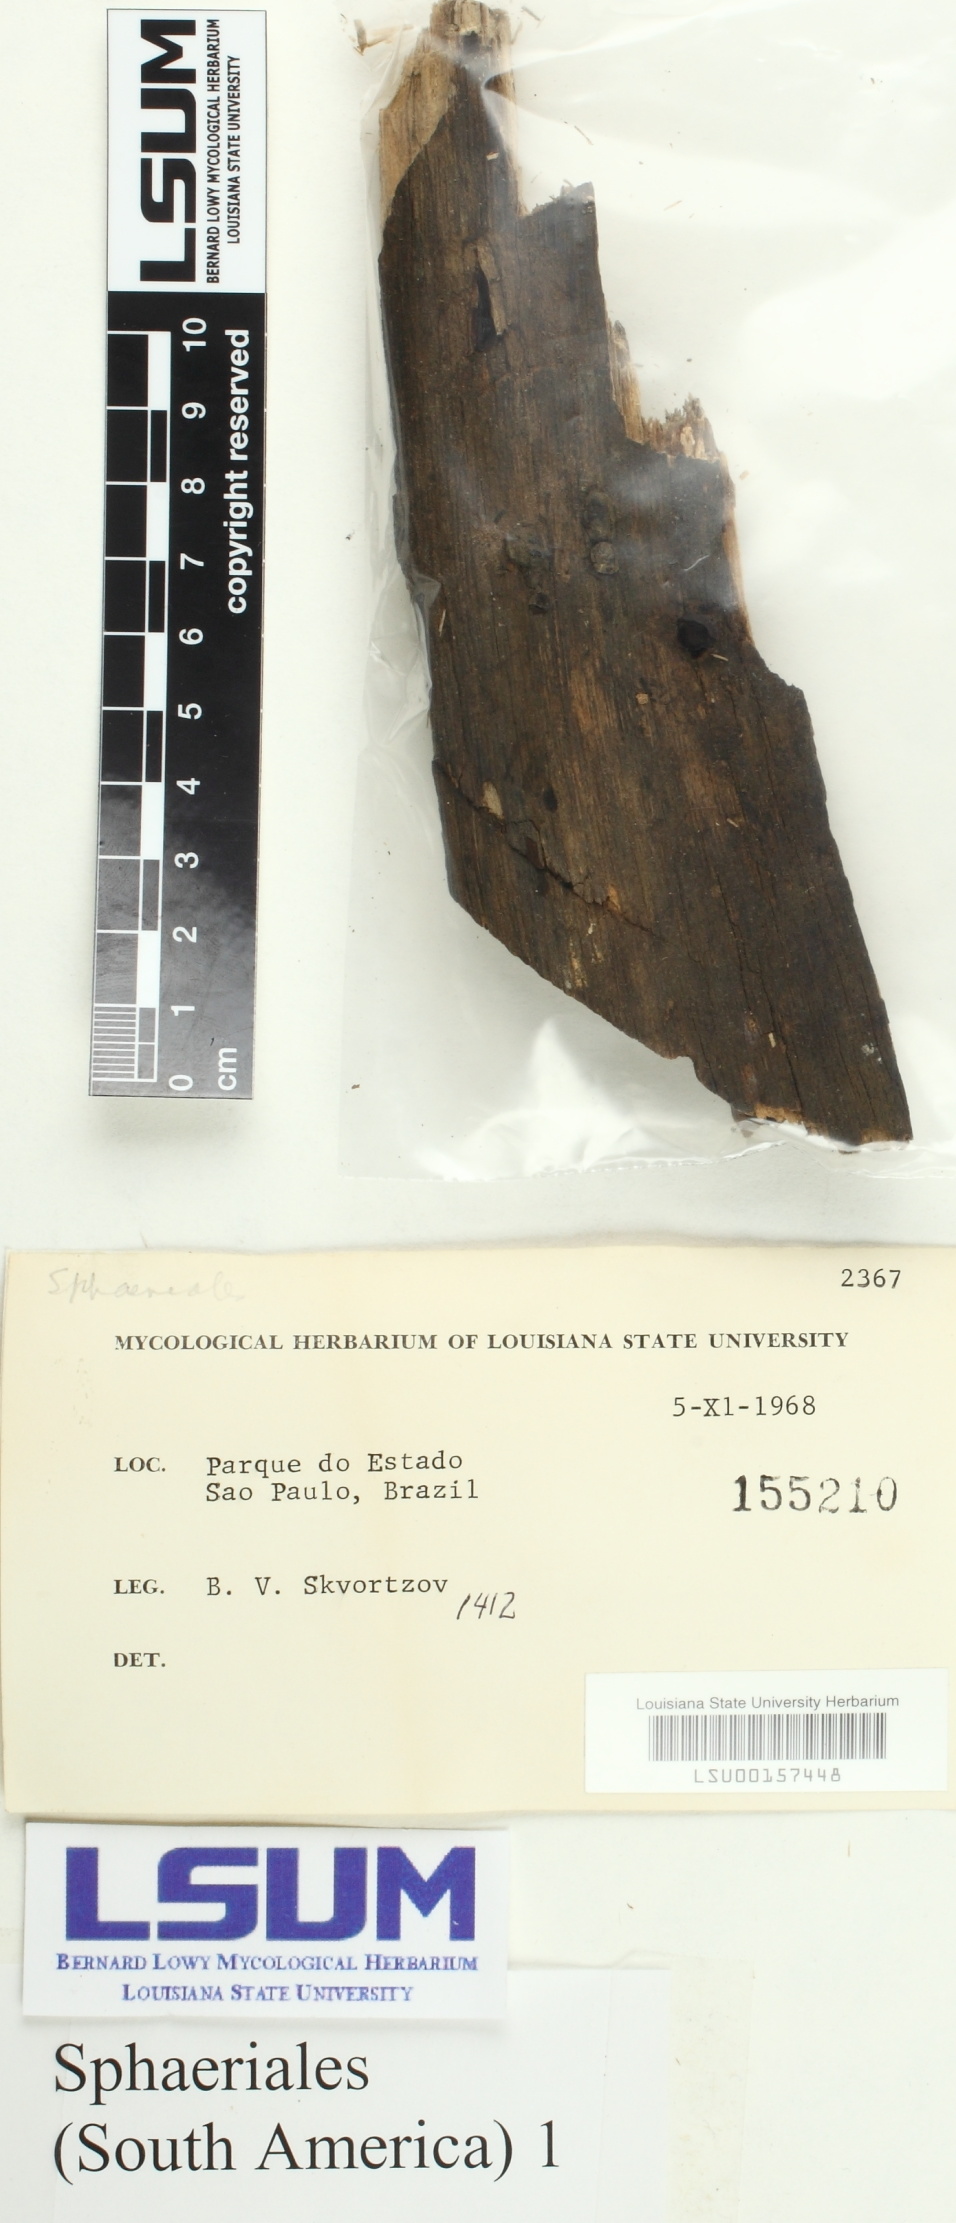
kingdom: Fungi
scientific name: Fungi
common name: Fungi
